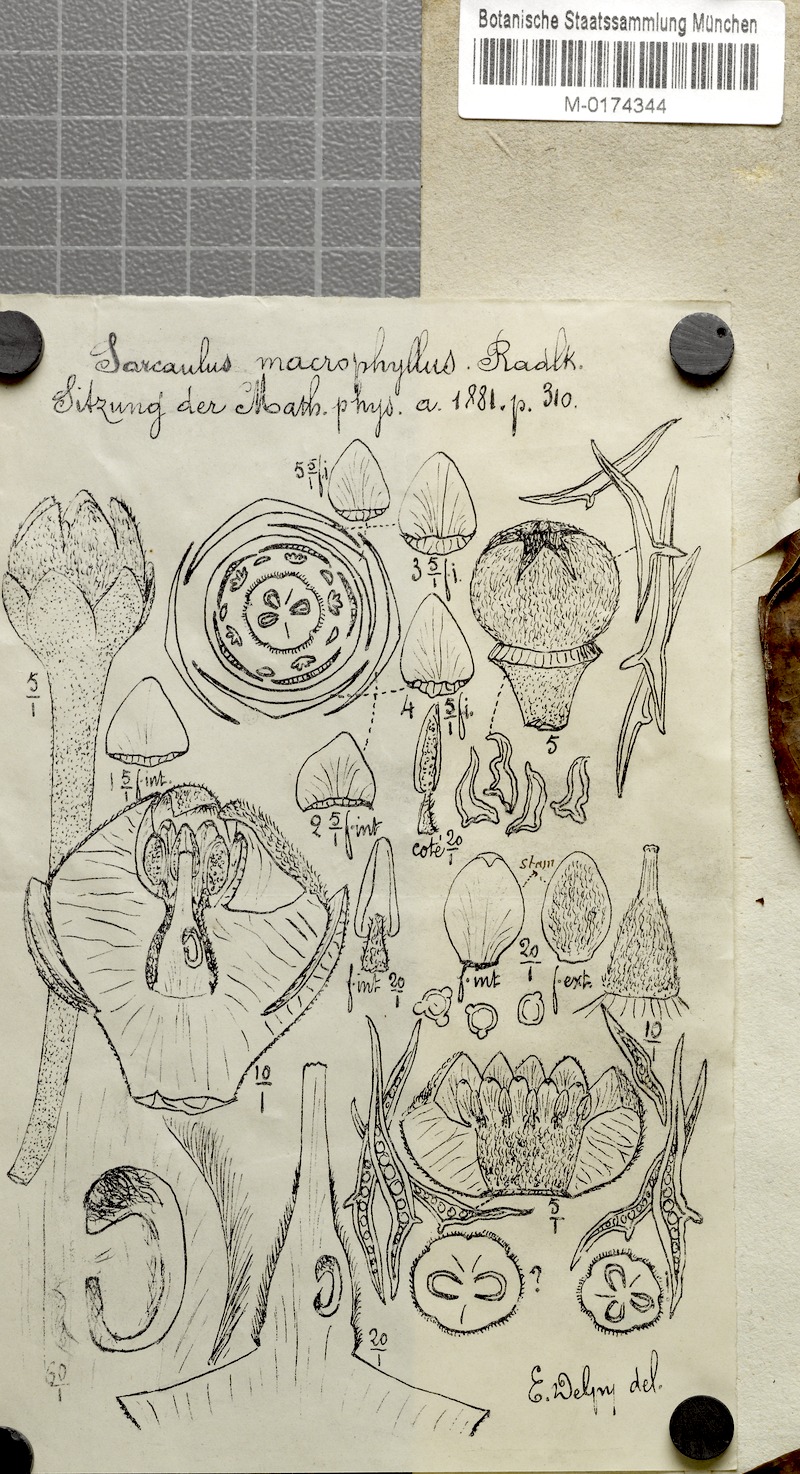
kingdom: Plantae
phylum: Tracheophyta
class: Magnoliopsida
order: Ericales
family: Sapotaceae
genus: Sarcaulus
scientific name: Sarcaulus brasiliensis
